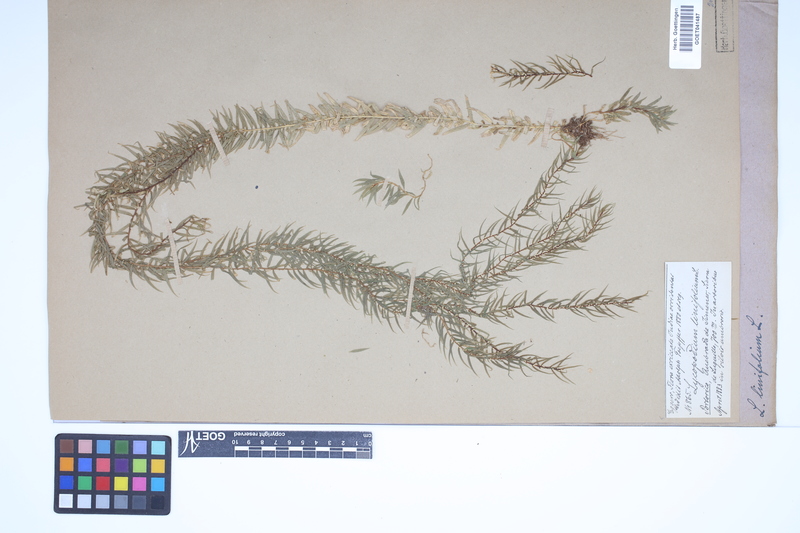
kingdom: Plantae
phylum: Tracheophyta
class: Lycopodiopsida
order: Lycopodiales
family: Lycopodiaceae
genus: Phlegmariurus
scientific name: Phlegmariurus linifolius
